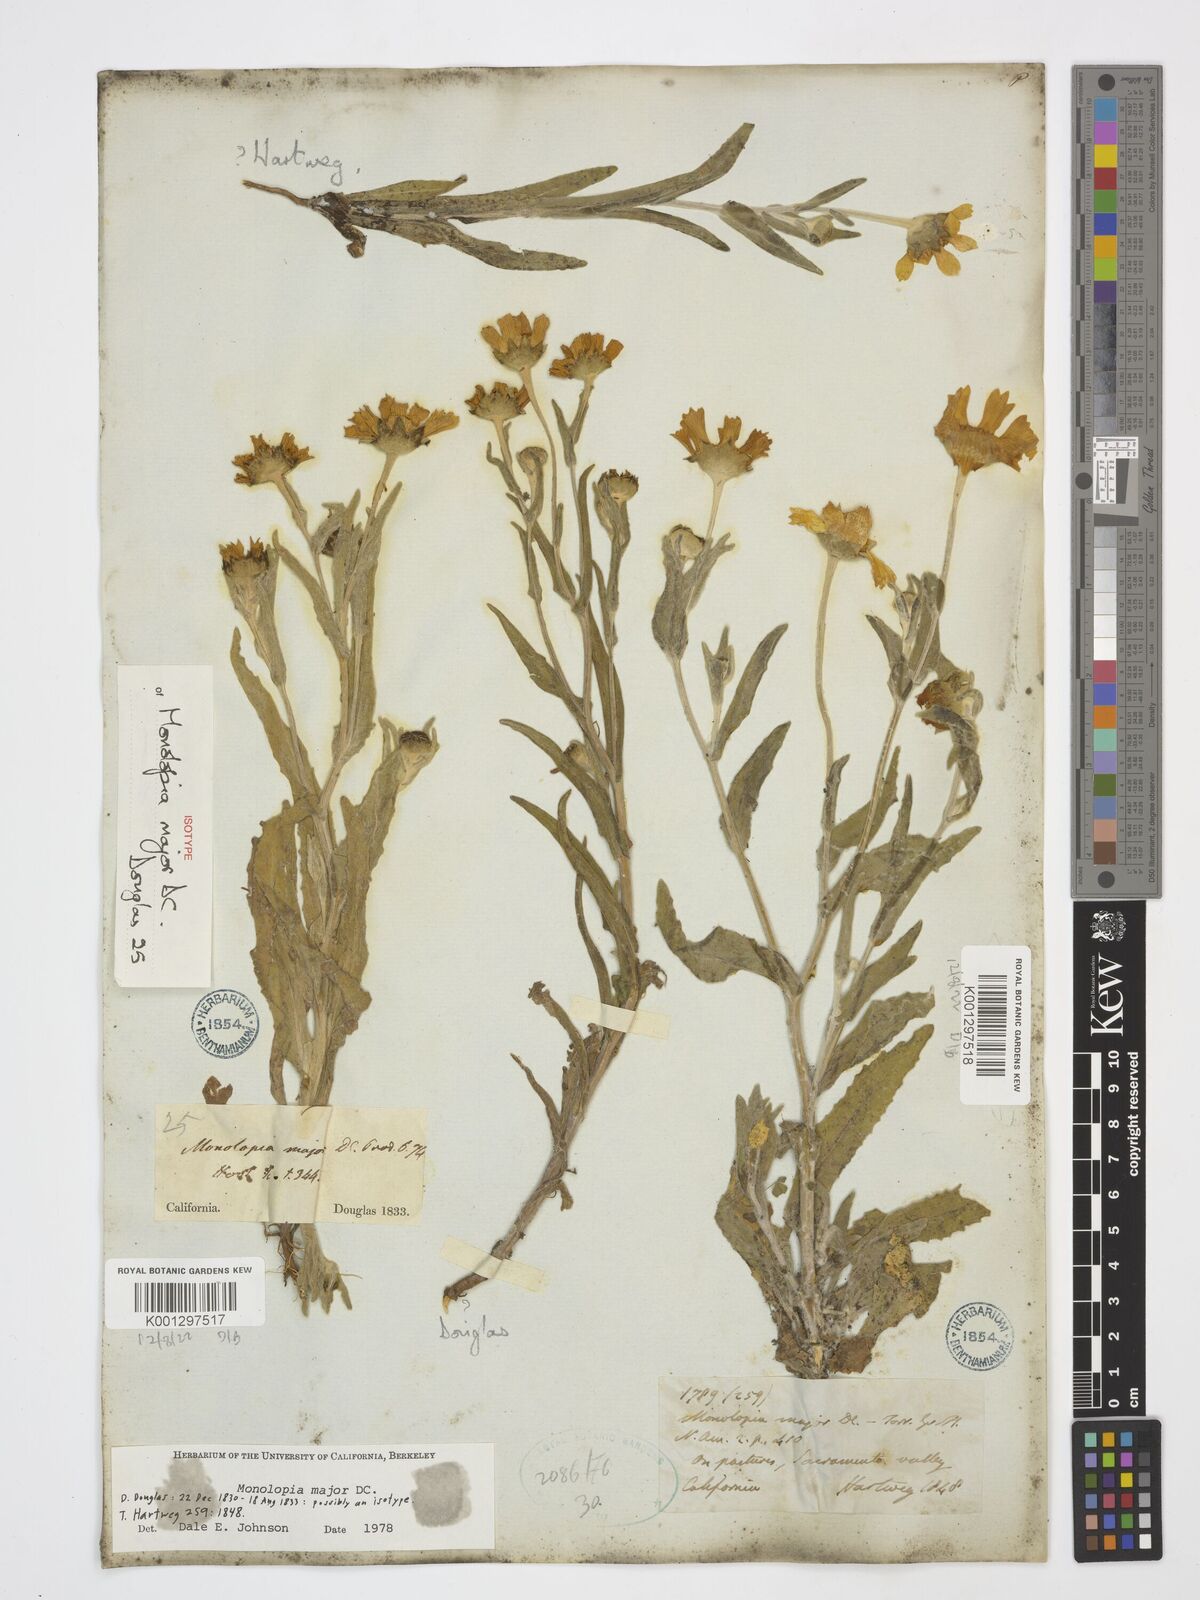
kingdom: Plantae
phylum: Tracheophyta
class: Magnoliopsida
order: Asterales
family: Asteraceae
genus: Monolopia
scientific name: Monolopia major
